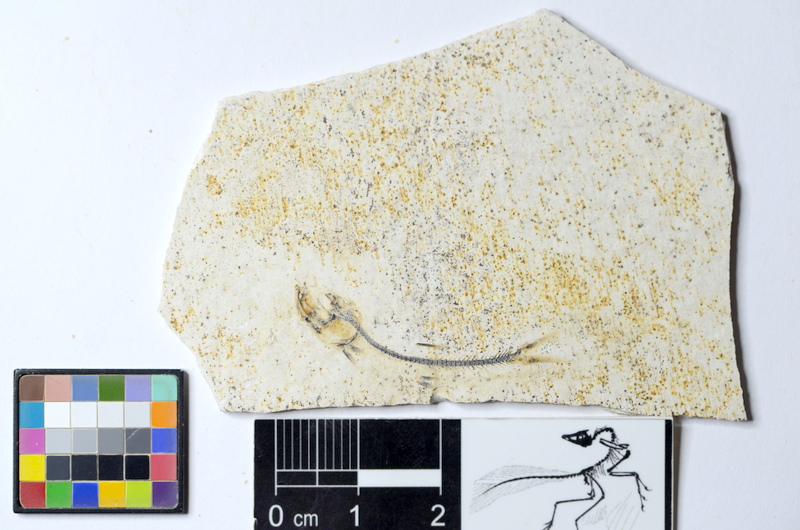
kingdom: Animalia
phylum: Chordata
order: Salmoniformes
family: Orthogonikleithridae
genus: Orthogonikleithrus
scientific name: Orthogonikleithrus hoelli
